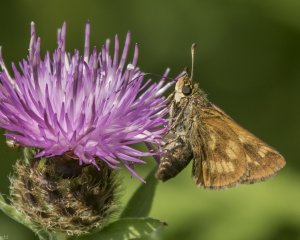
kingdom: Animalia
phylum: Arthropoda
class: Insecta
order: Lepidoptera
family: Hesperiidae
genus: Polites
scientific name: Polites
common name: Long Dash Skipper
